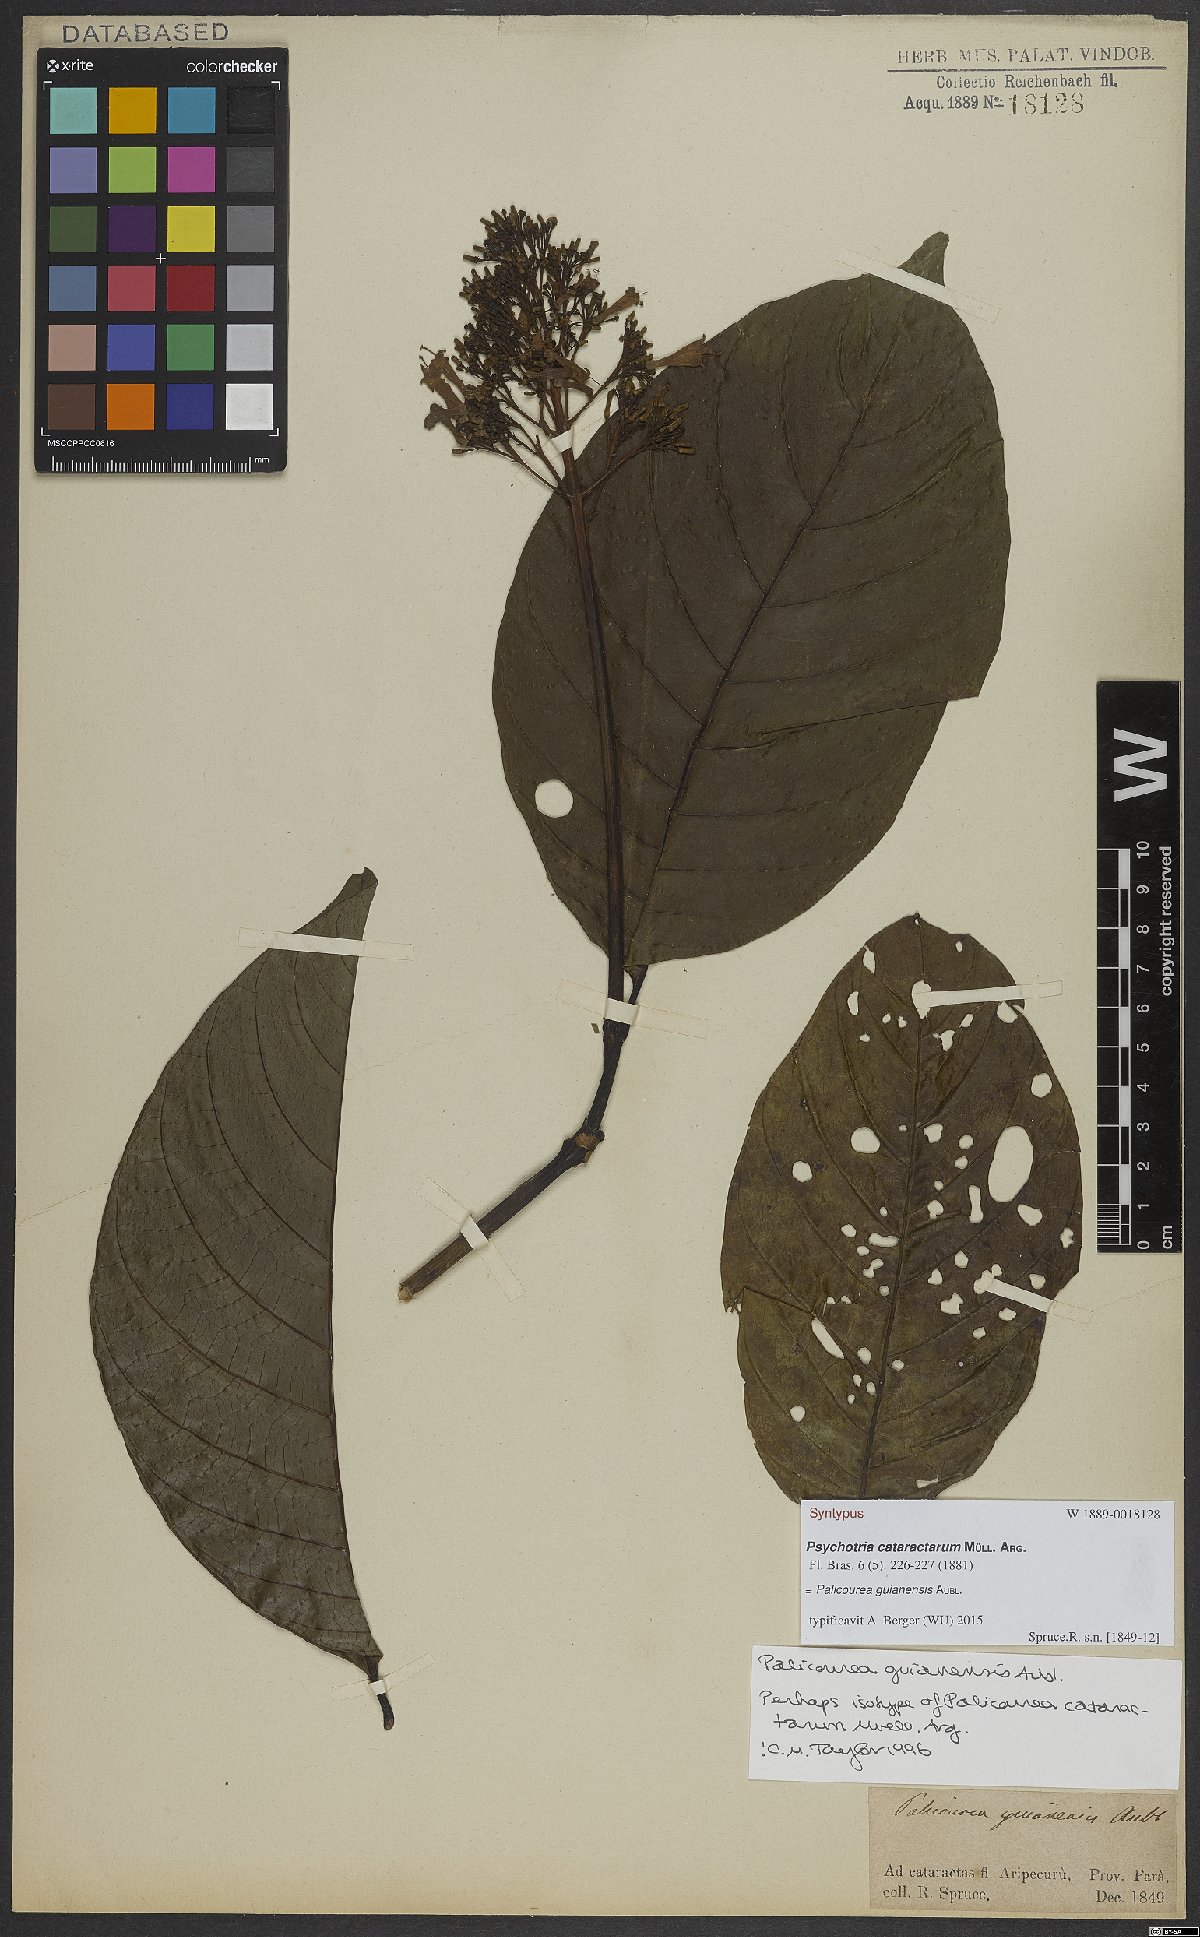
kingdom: Plantae
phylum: Tracheophyta
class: Magnoliopsida
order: Gentianales
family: Rubiaceae
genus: Palicourea
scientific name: Palicourea guianensis
